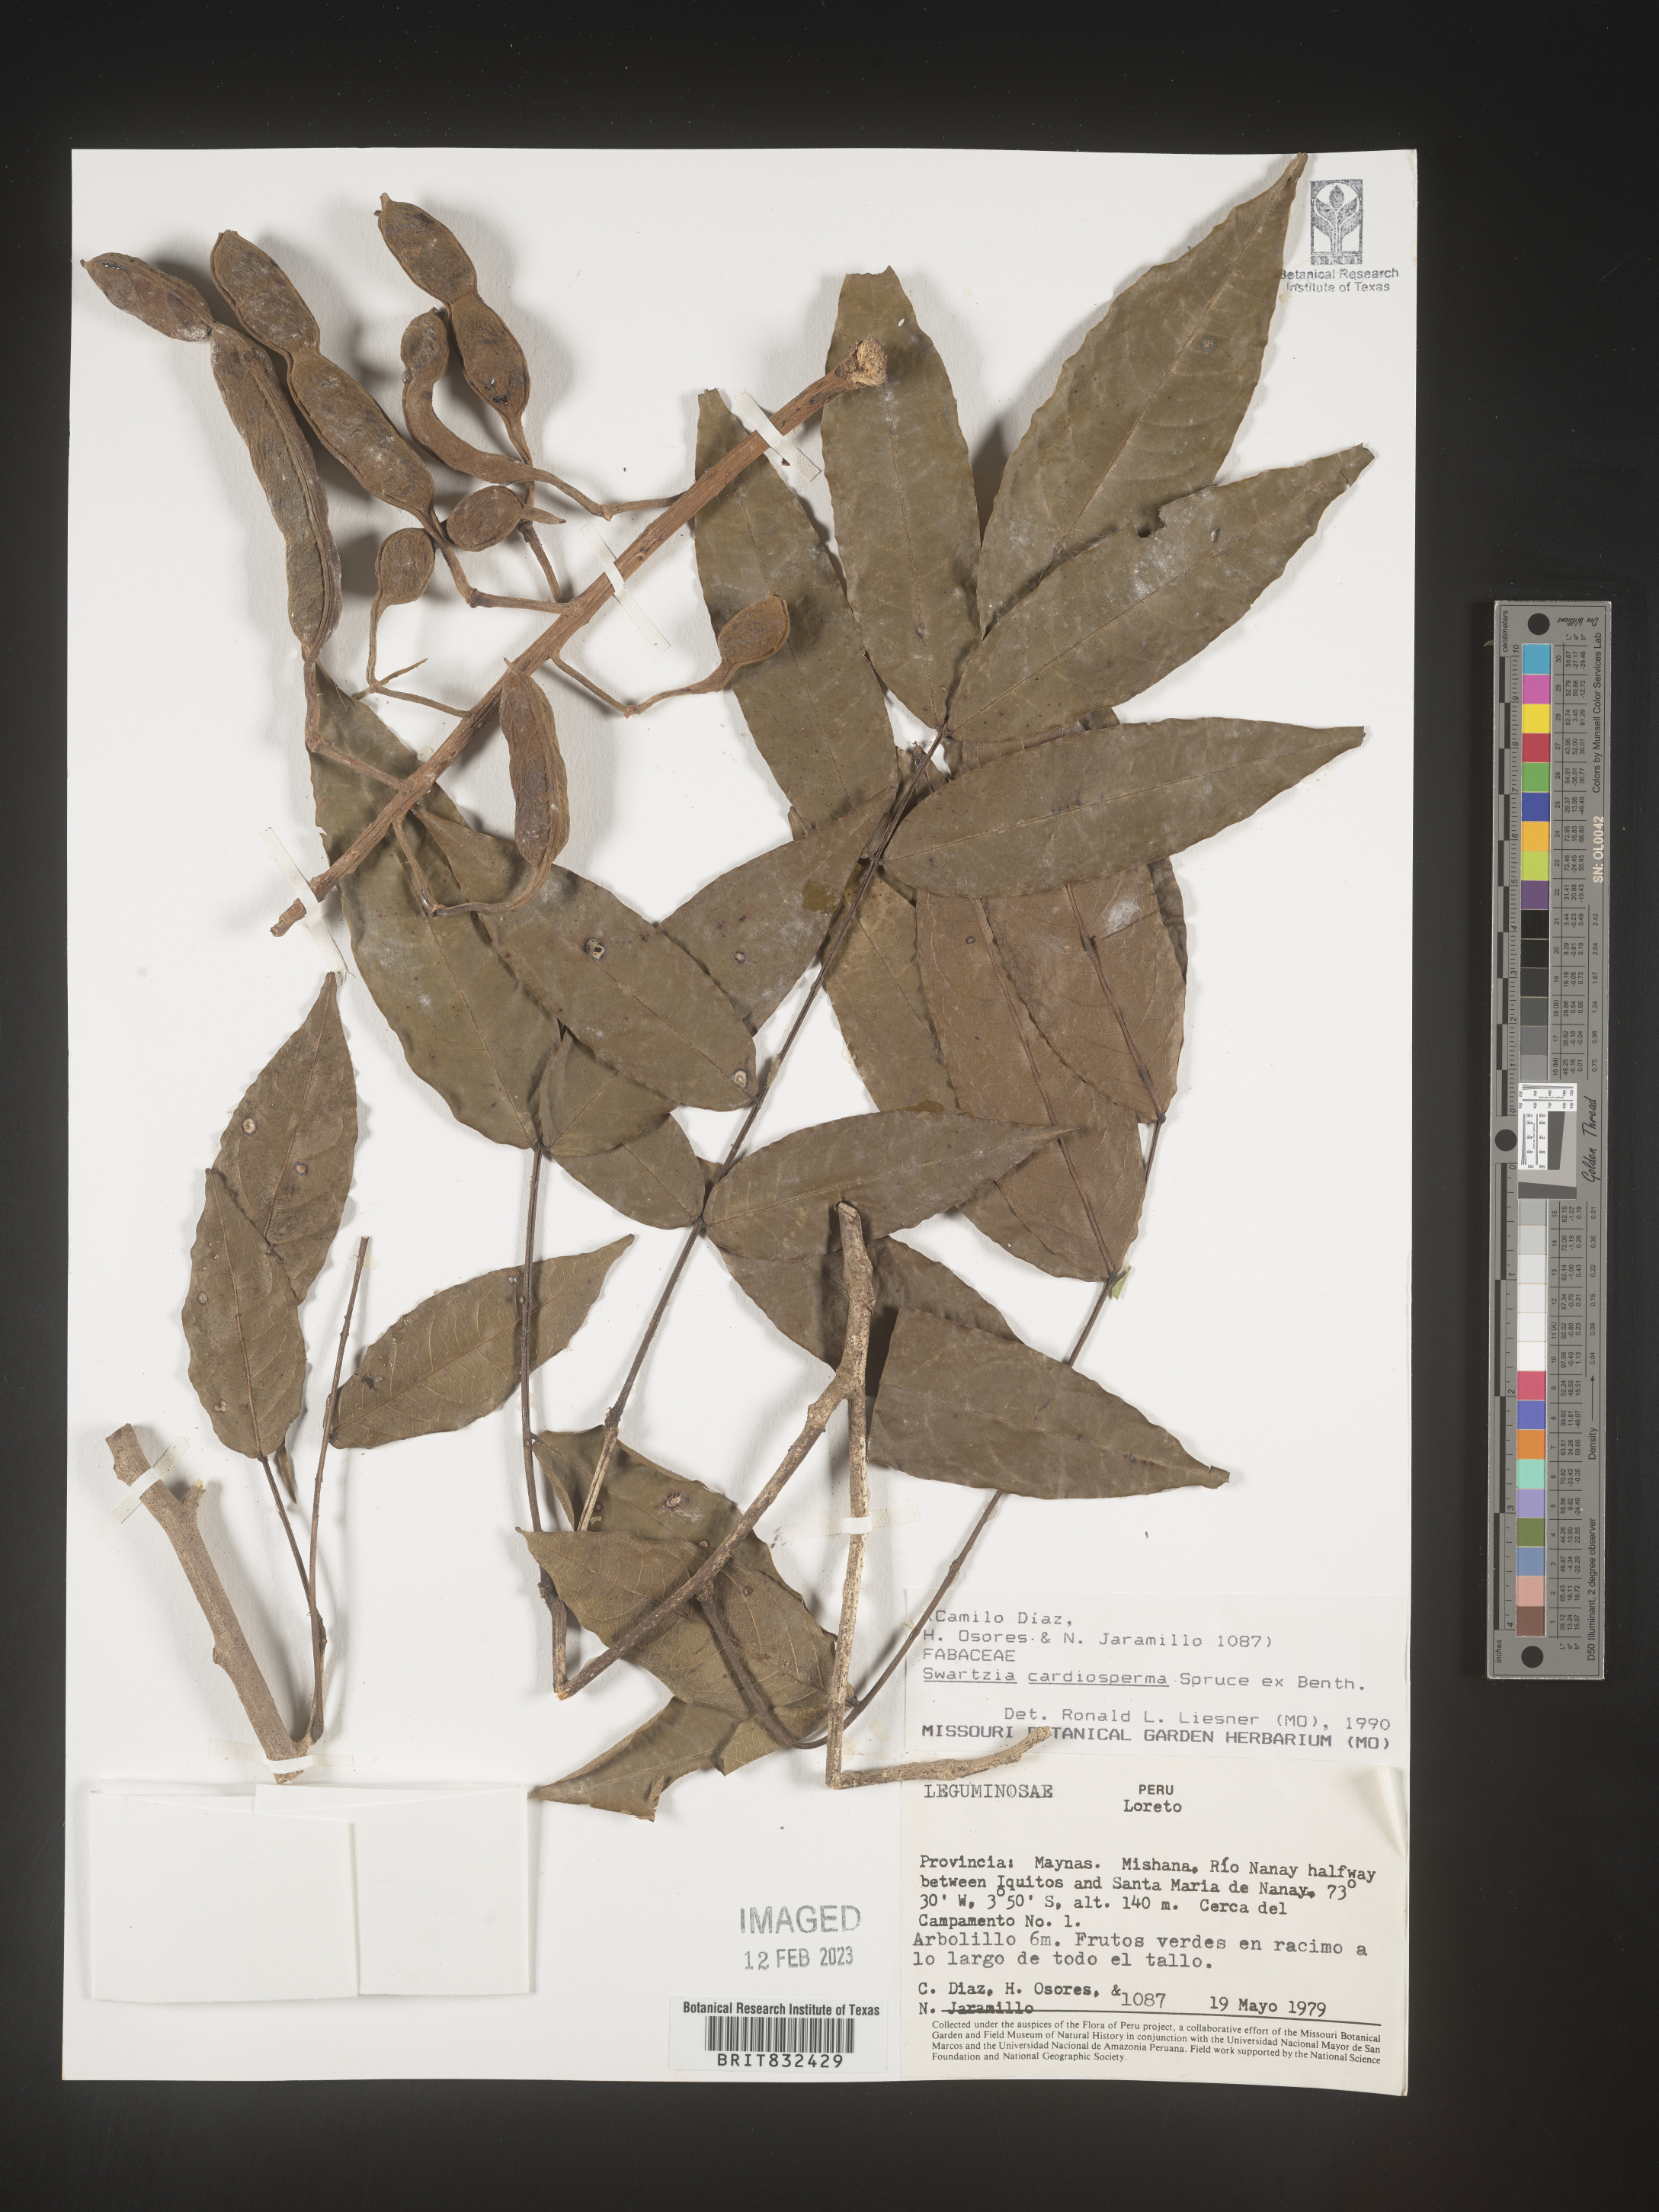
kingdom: Plantae
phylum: Tracheophyta
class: Magnoliopsida
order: Fabales
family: Fabaceae
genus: Swartzia
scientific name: Swartzia
